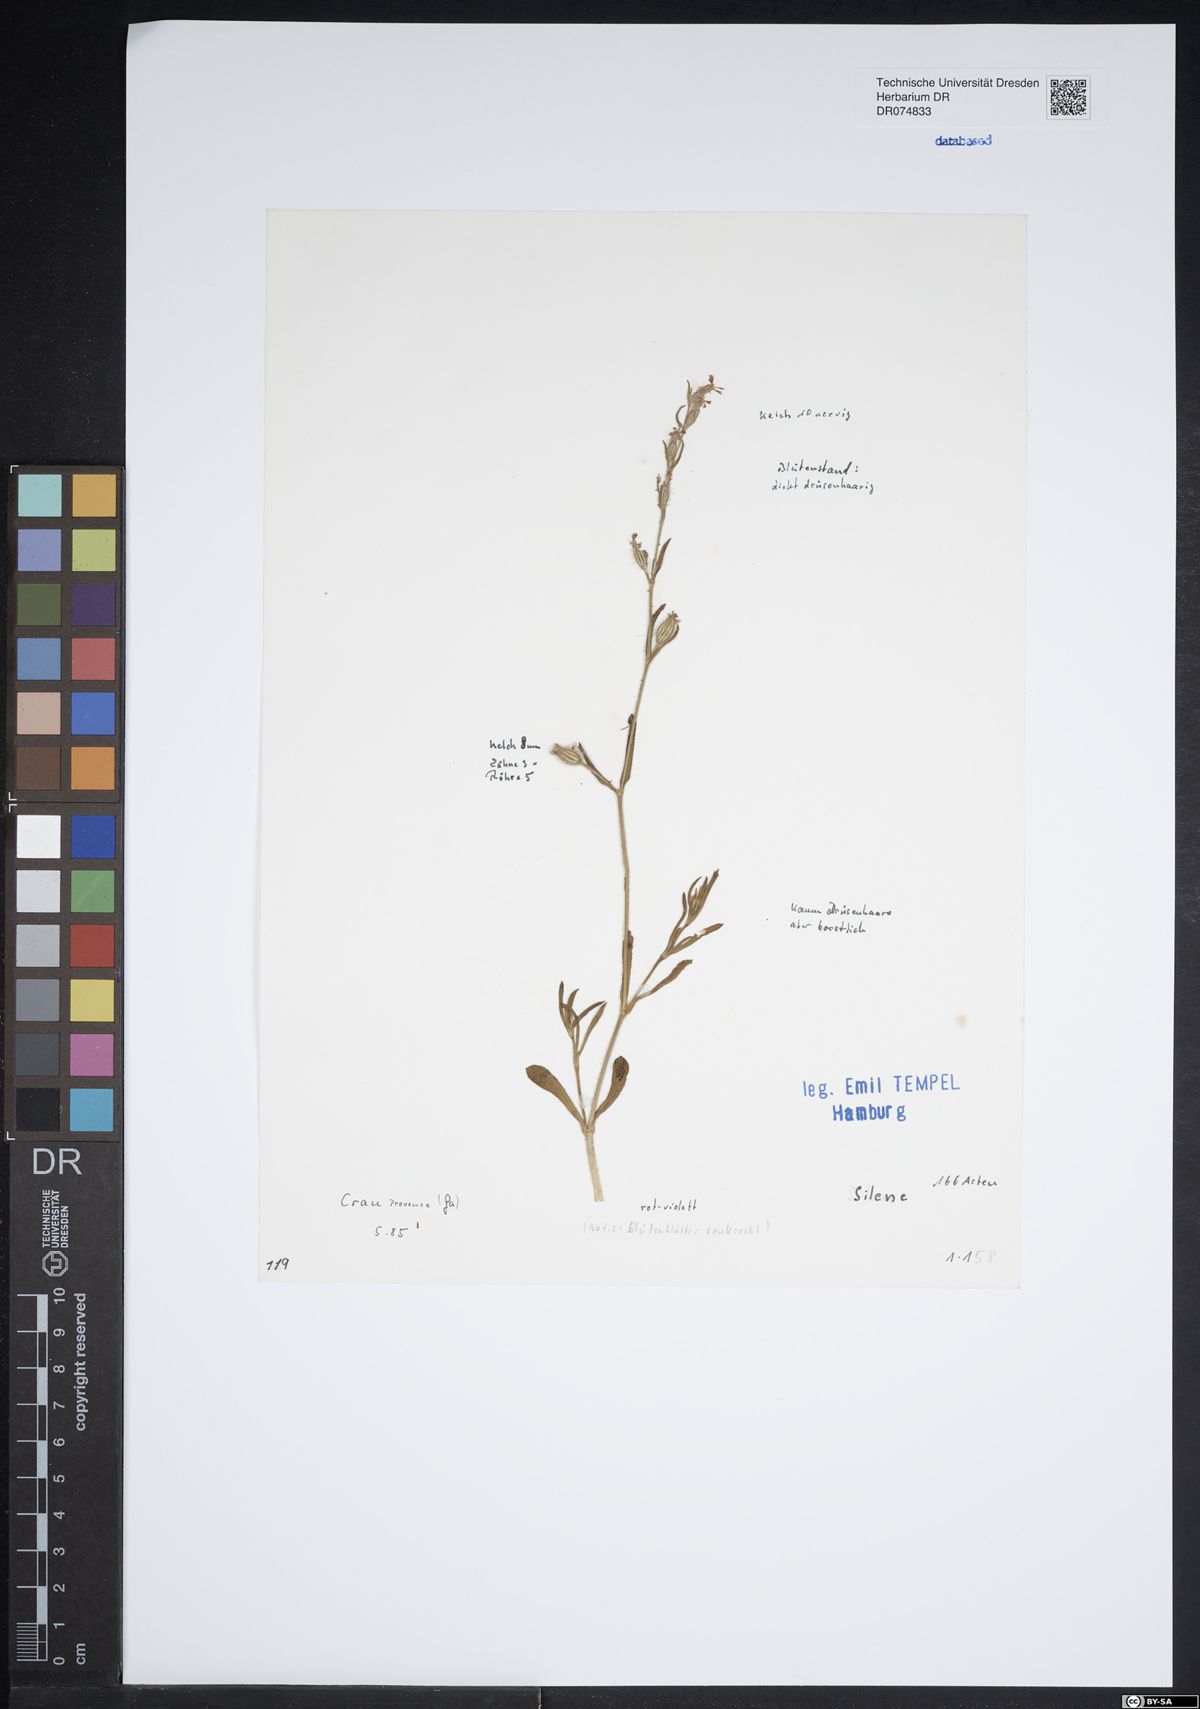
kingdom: Plantae
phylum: Tracheophyta
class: Magnoliopsida
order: Caryophyllales
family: Caryophyllaceae
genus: Silene
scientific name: Silene
